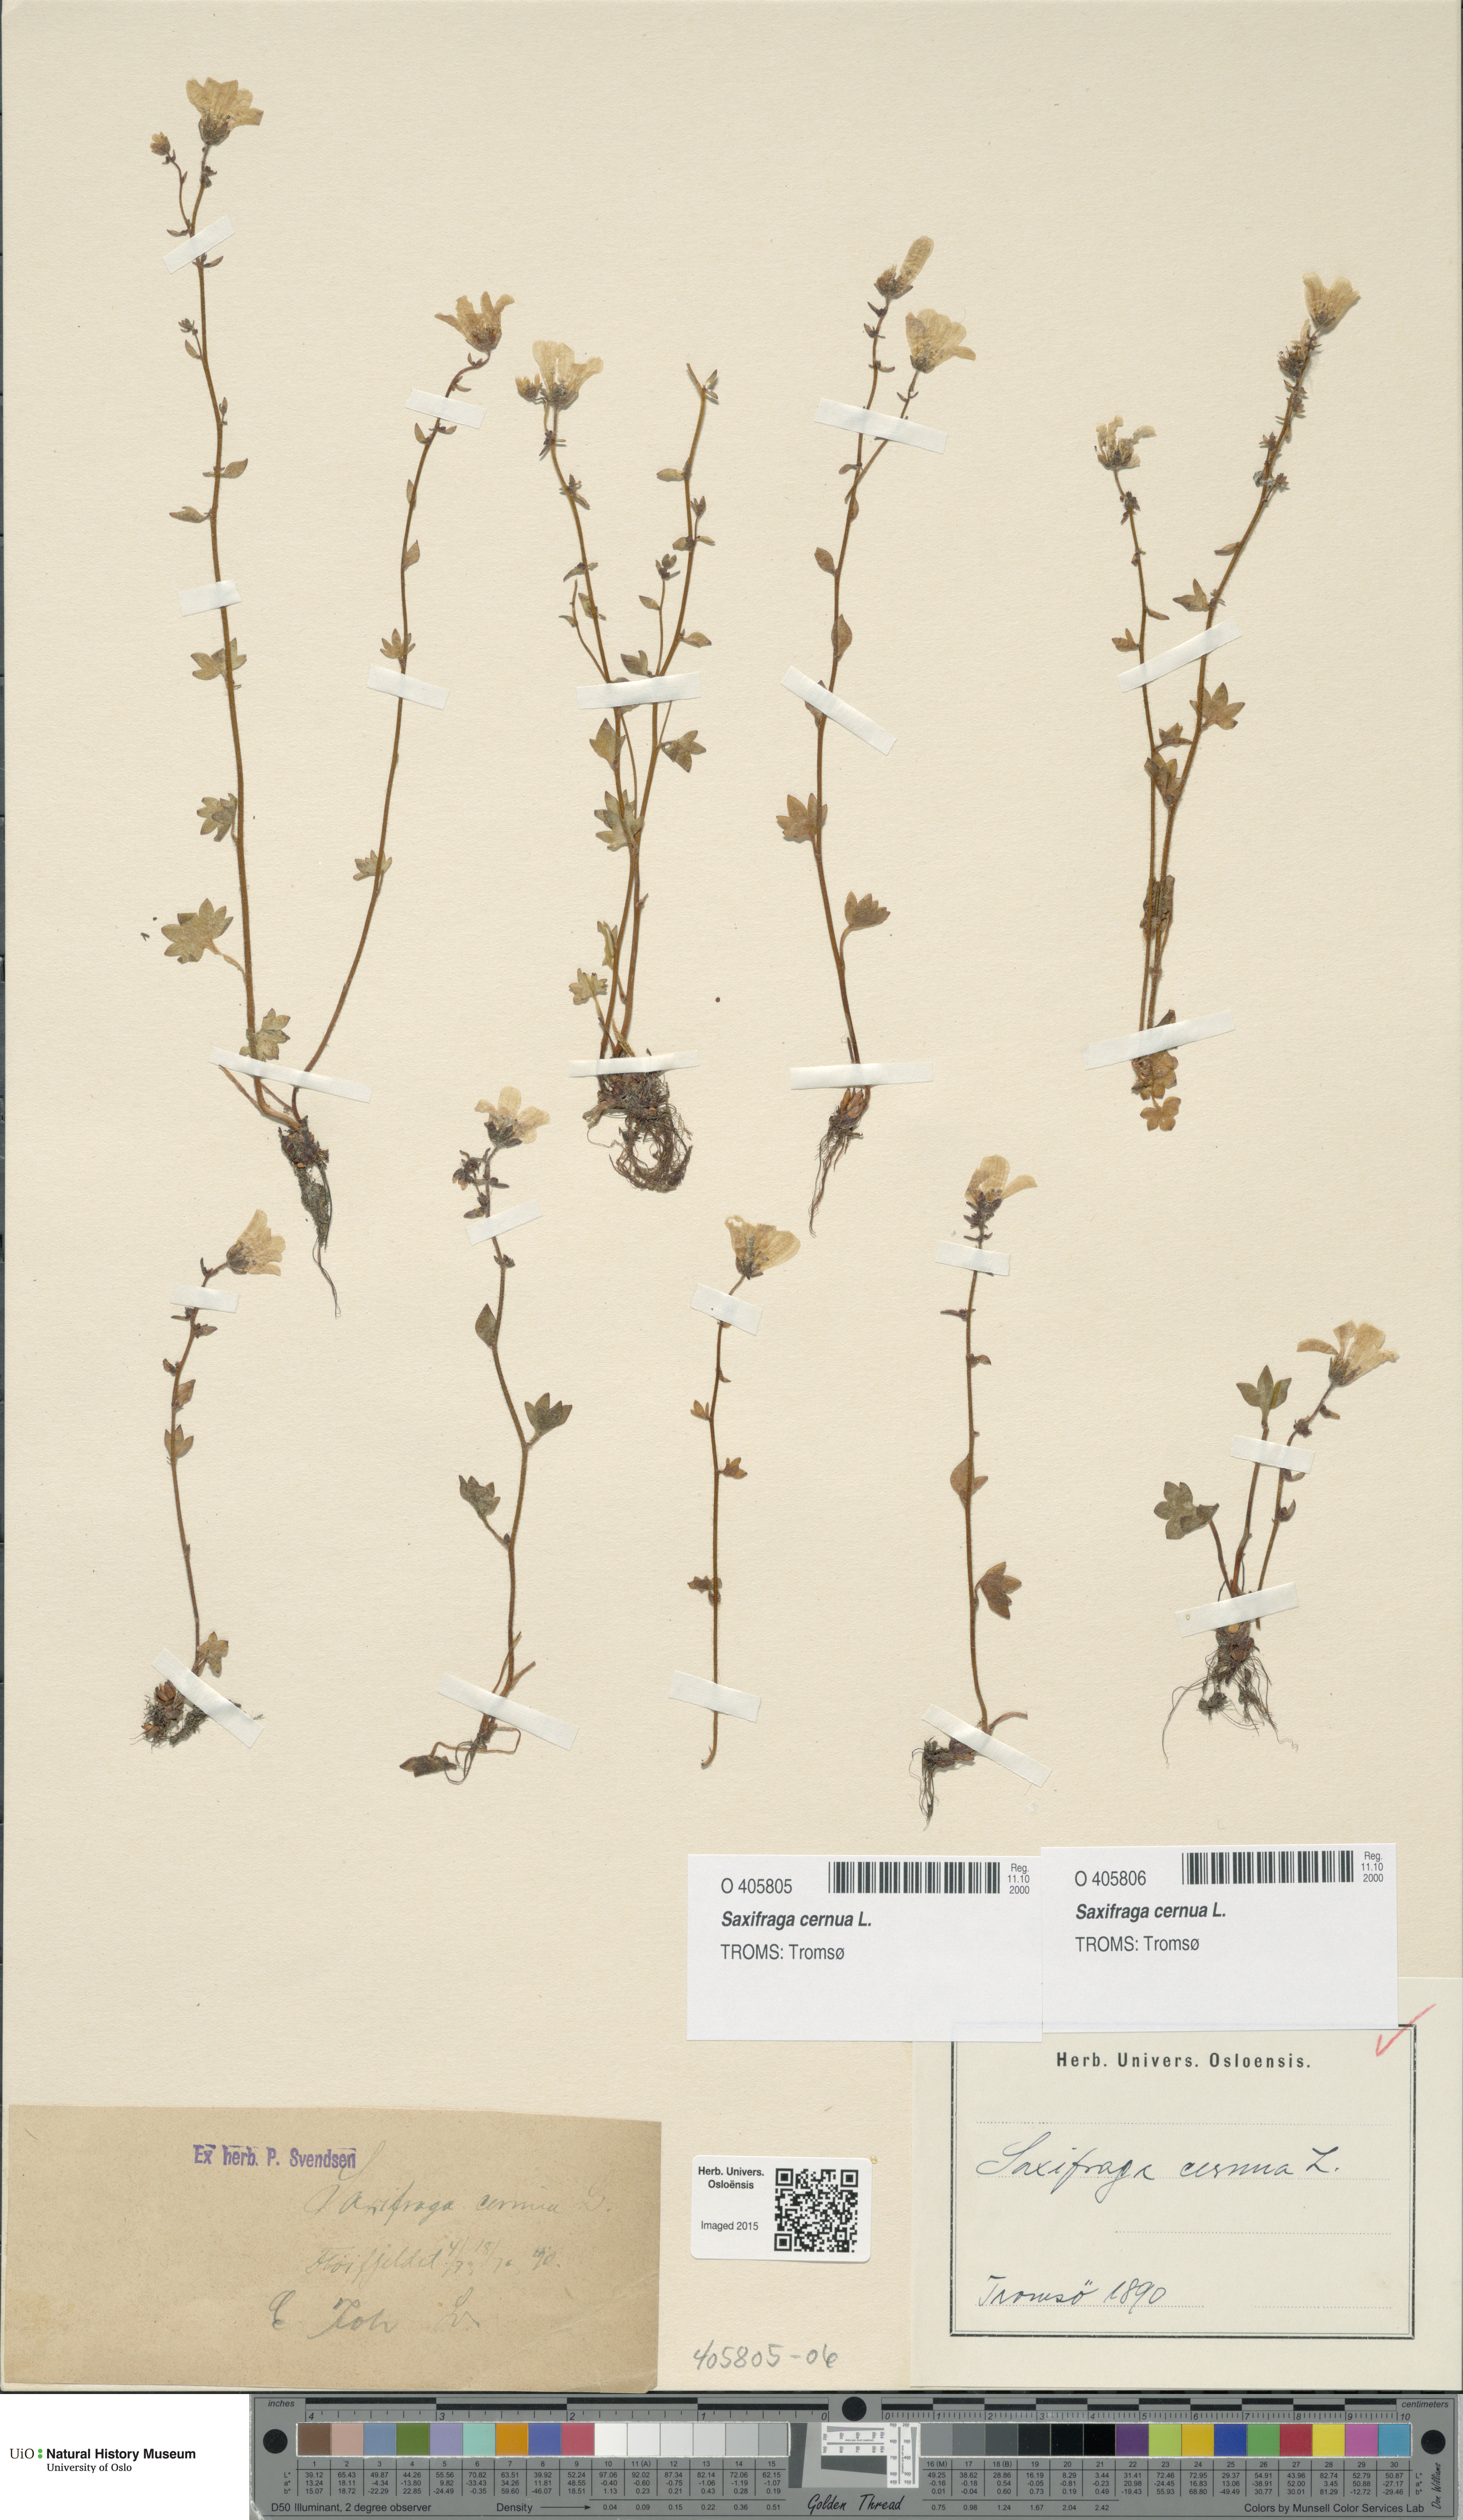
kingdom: Plantae
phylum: Tracheophyta
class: Magnoliopsida
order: Saxifragales
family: Saxifragaceae
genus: Saxifraga
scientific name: Saxifraga cernua
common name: Drooping saxifrage
